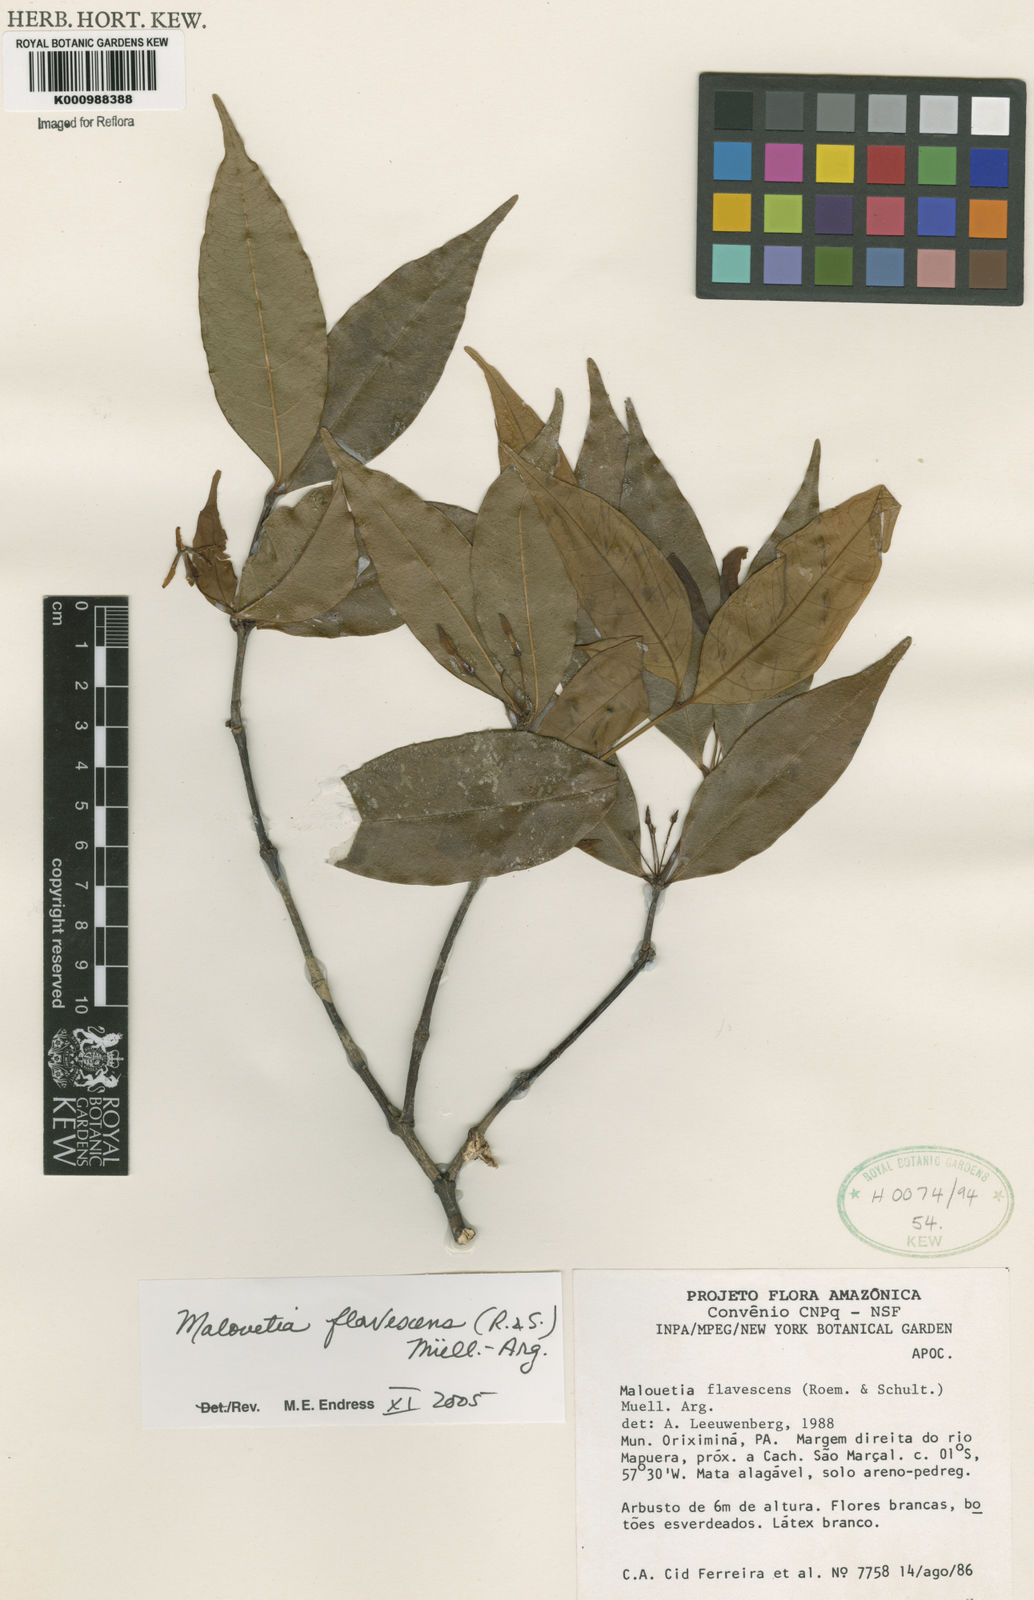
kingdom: Plantae
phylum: Tracheophyta
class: Magnoliopsida
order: Gentianales
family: Apocynaceae
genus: Malouetia
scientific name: Malouetia
